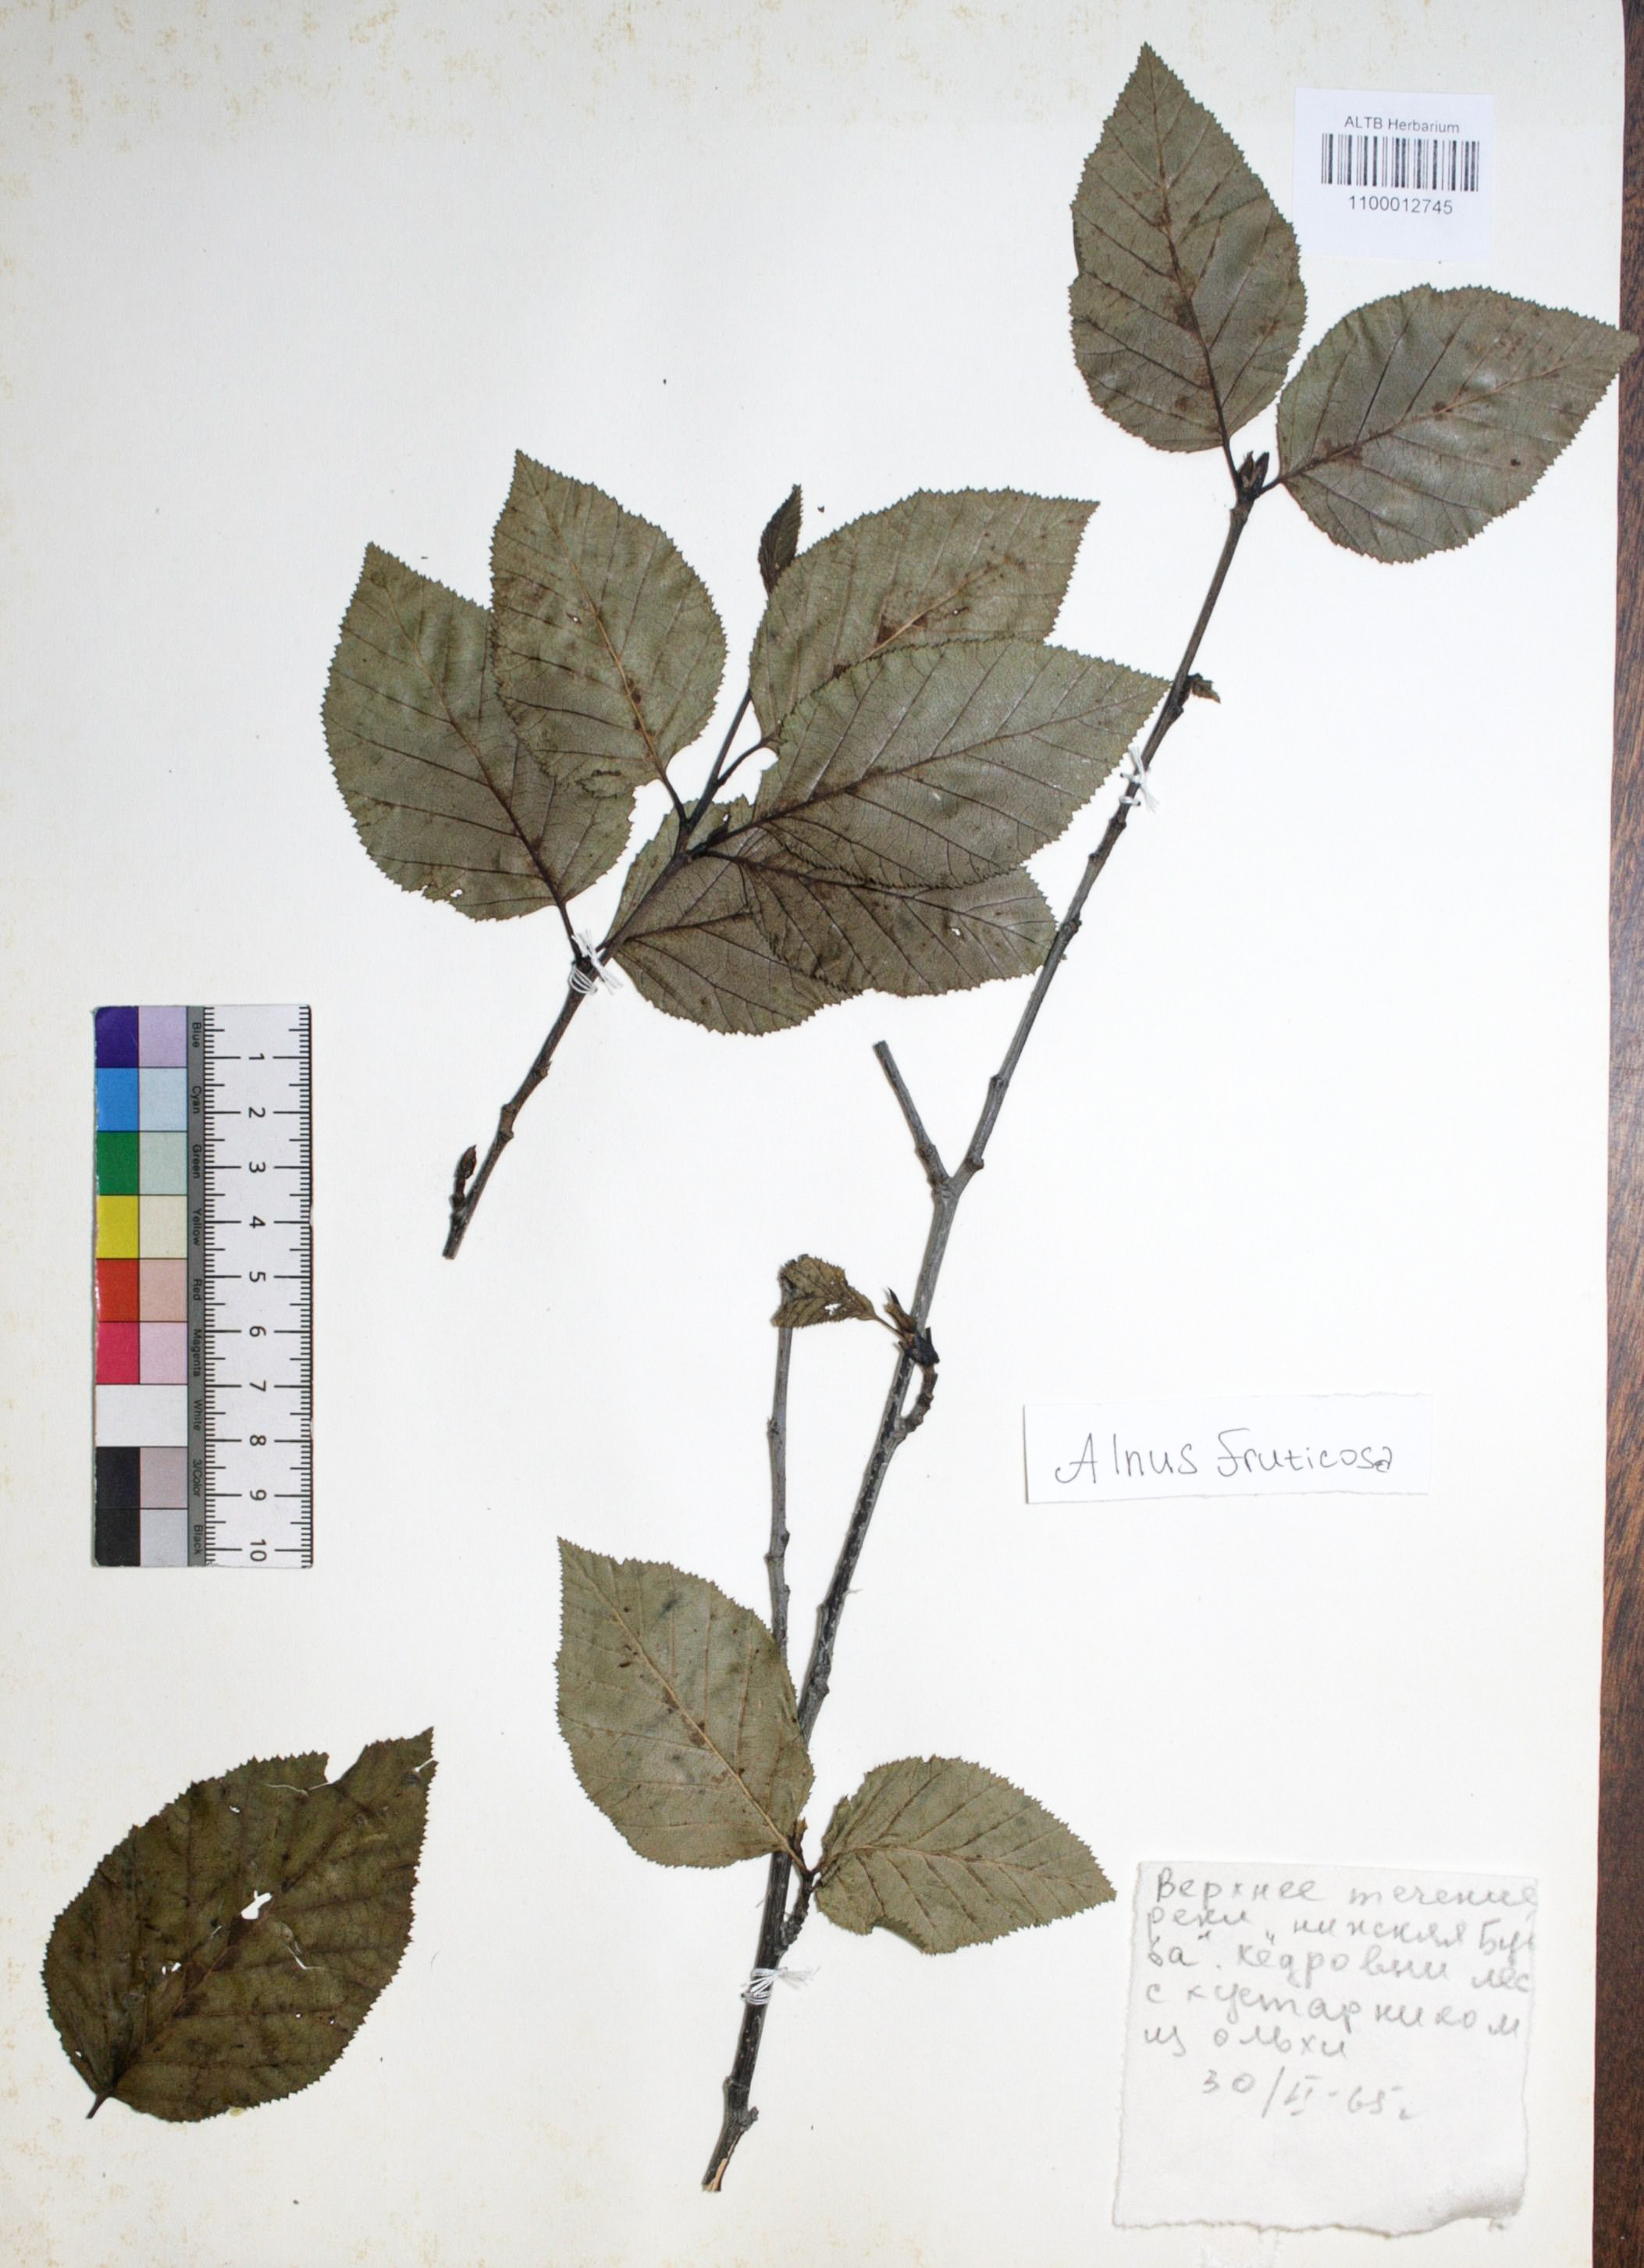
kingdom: Plantae
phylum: Tracheophyta
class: Magnoliopsida
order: Fagales
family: Betulaceae
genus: Alnus
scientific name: Alnus alnobetula
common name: Green alder
